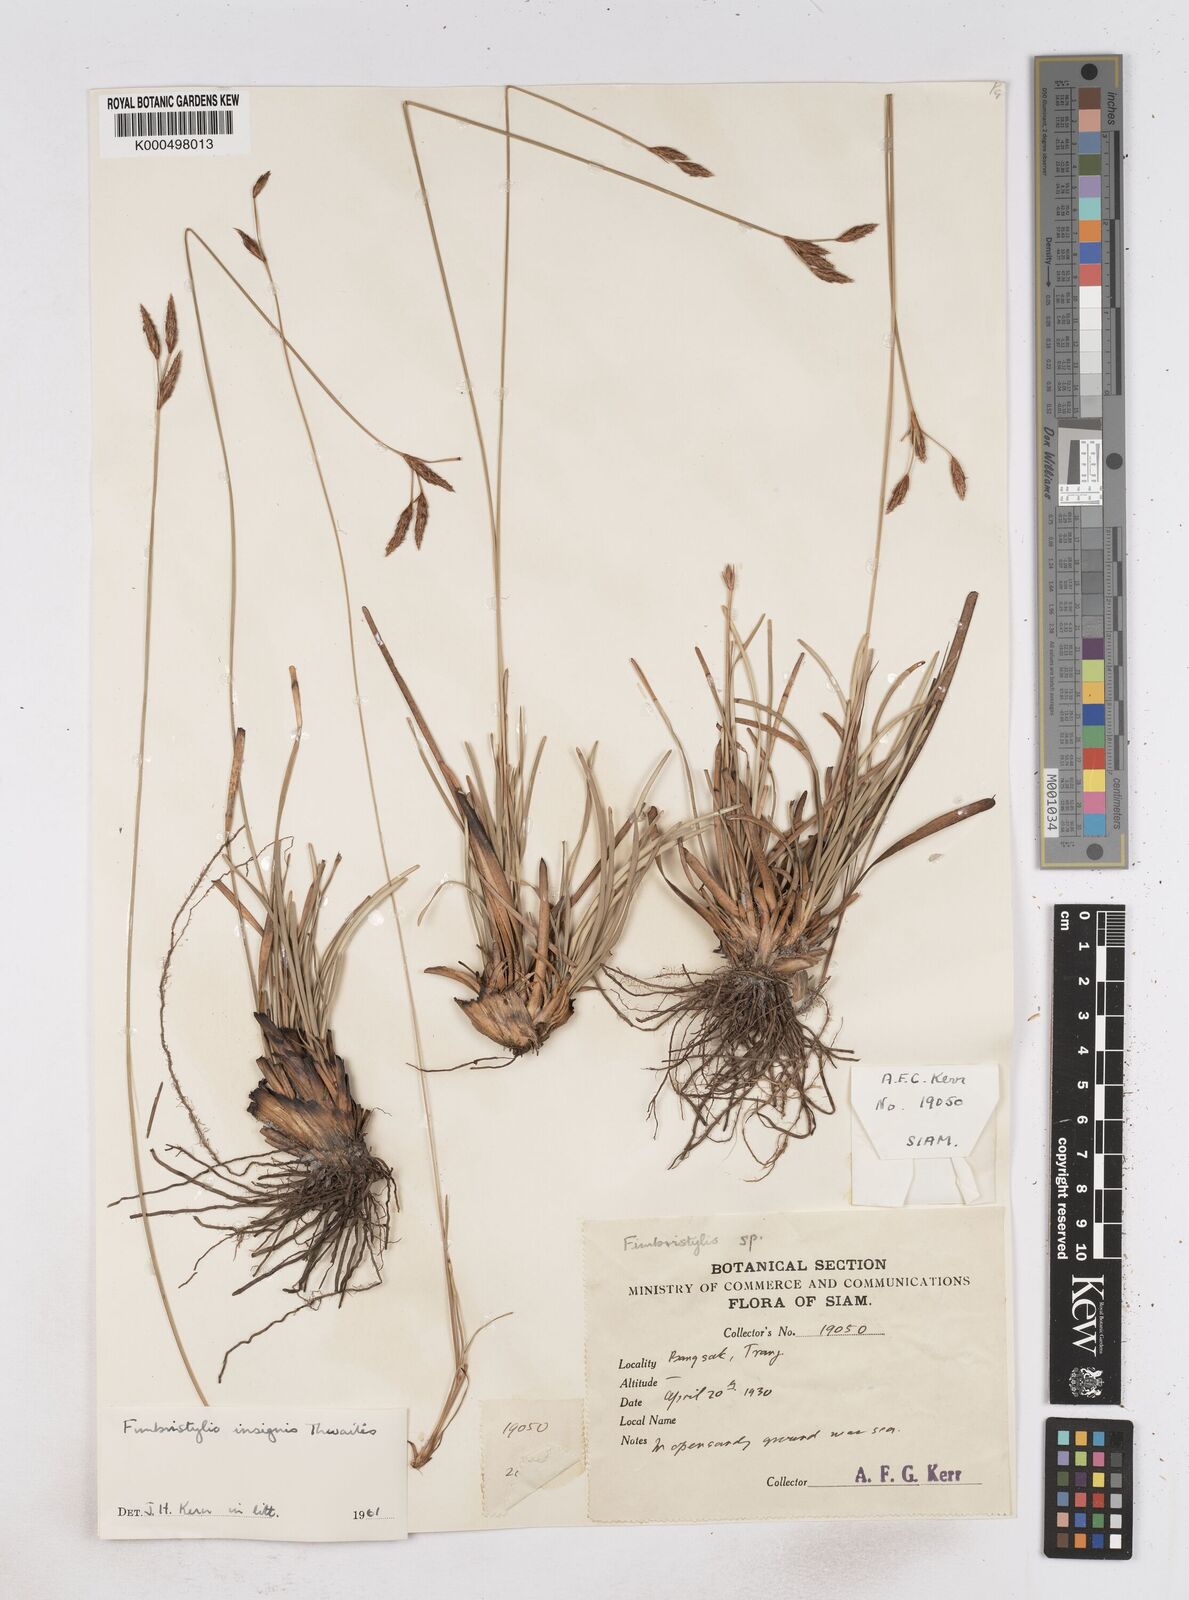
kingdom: Plantae
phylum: Tracheophyta
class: Liliopsida
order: Poales
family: Cyperaceae
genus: Fimbristylis
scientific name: Fimbristylis insignis
